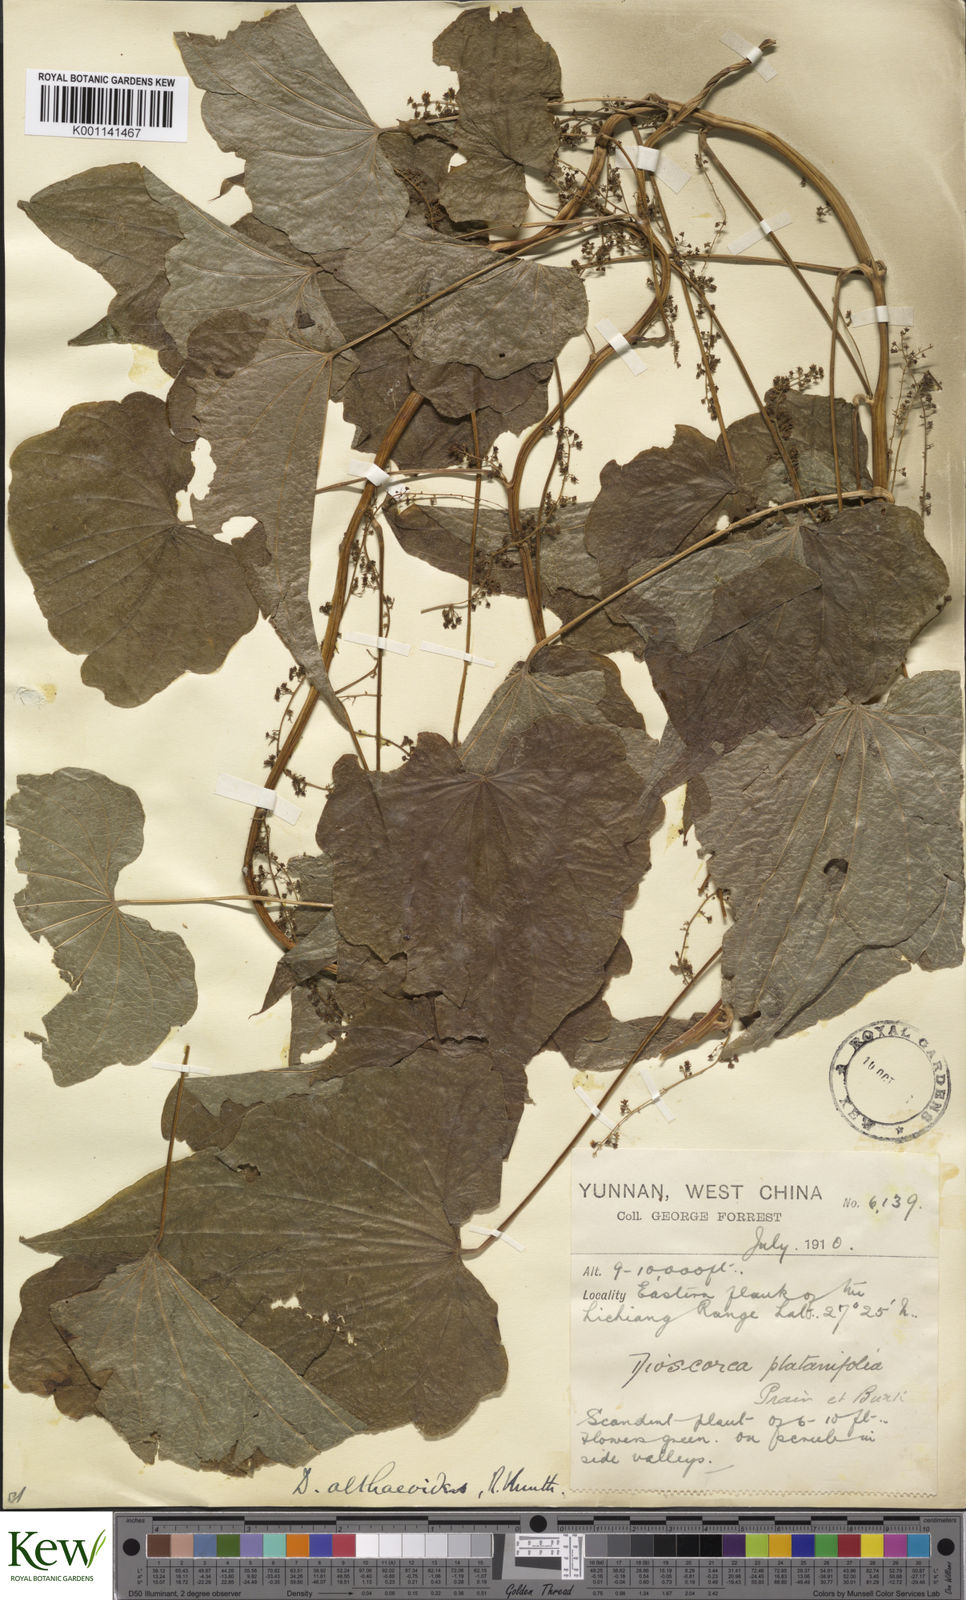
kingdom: Plantae
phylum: Tracheophyta
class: Liliopsida
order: Dioscoreales
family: Dioscoreaceae
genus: Dioscorea
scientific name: Dioscorea althaeoides
